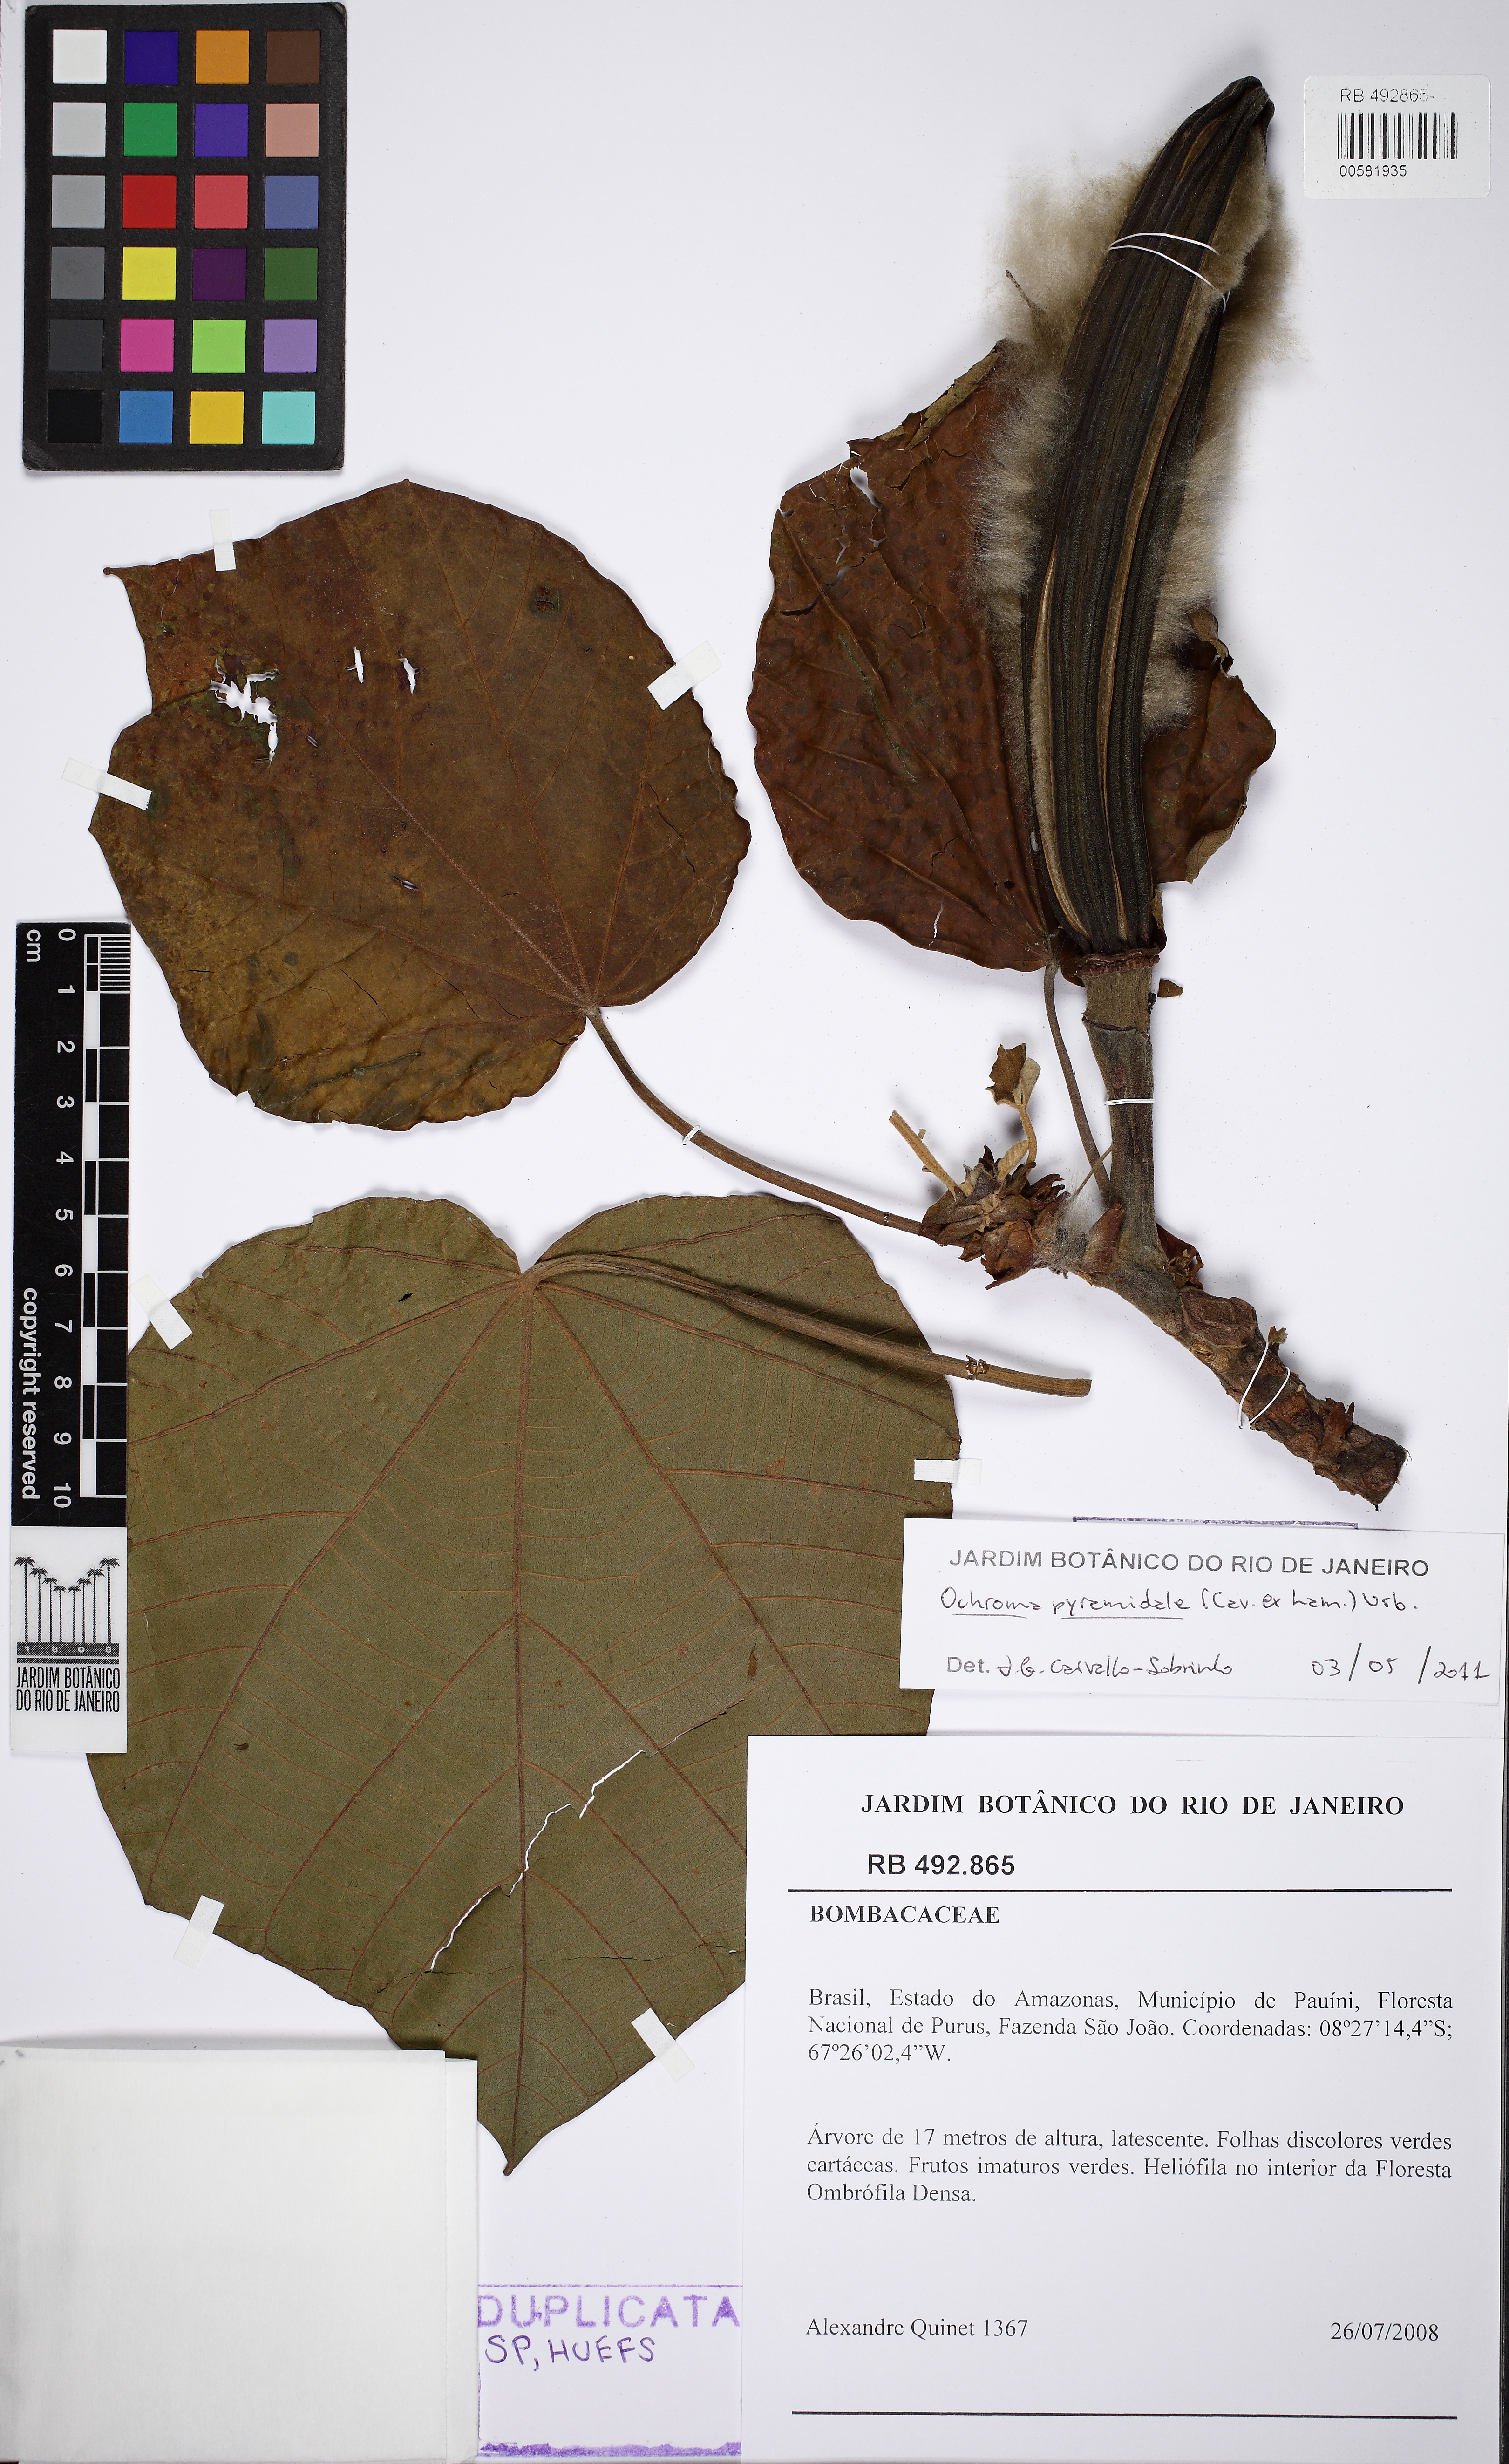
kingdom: Plantae
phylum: Tracheophyta
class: Magnoliopsida
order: Malvales
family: Malvaceae
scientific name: Malvaceae
